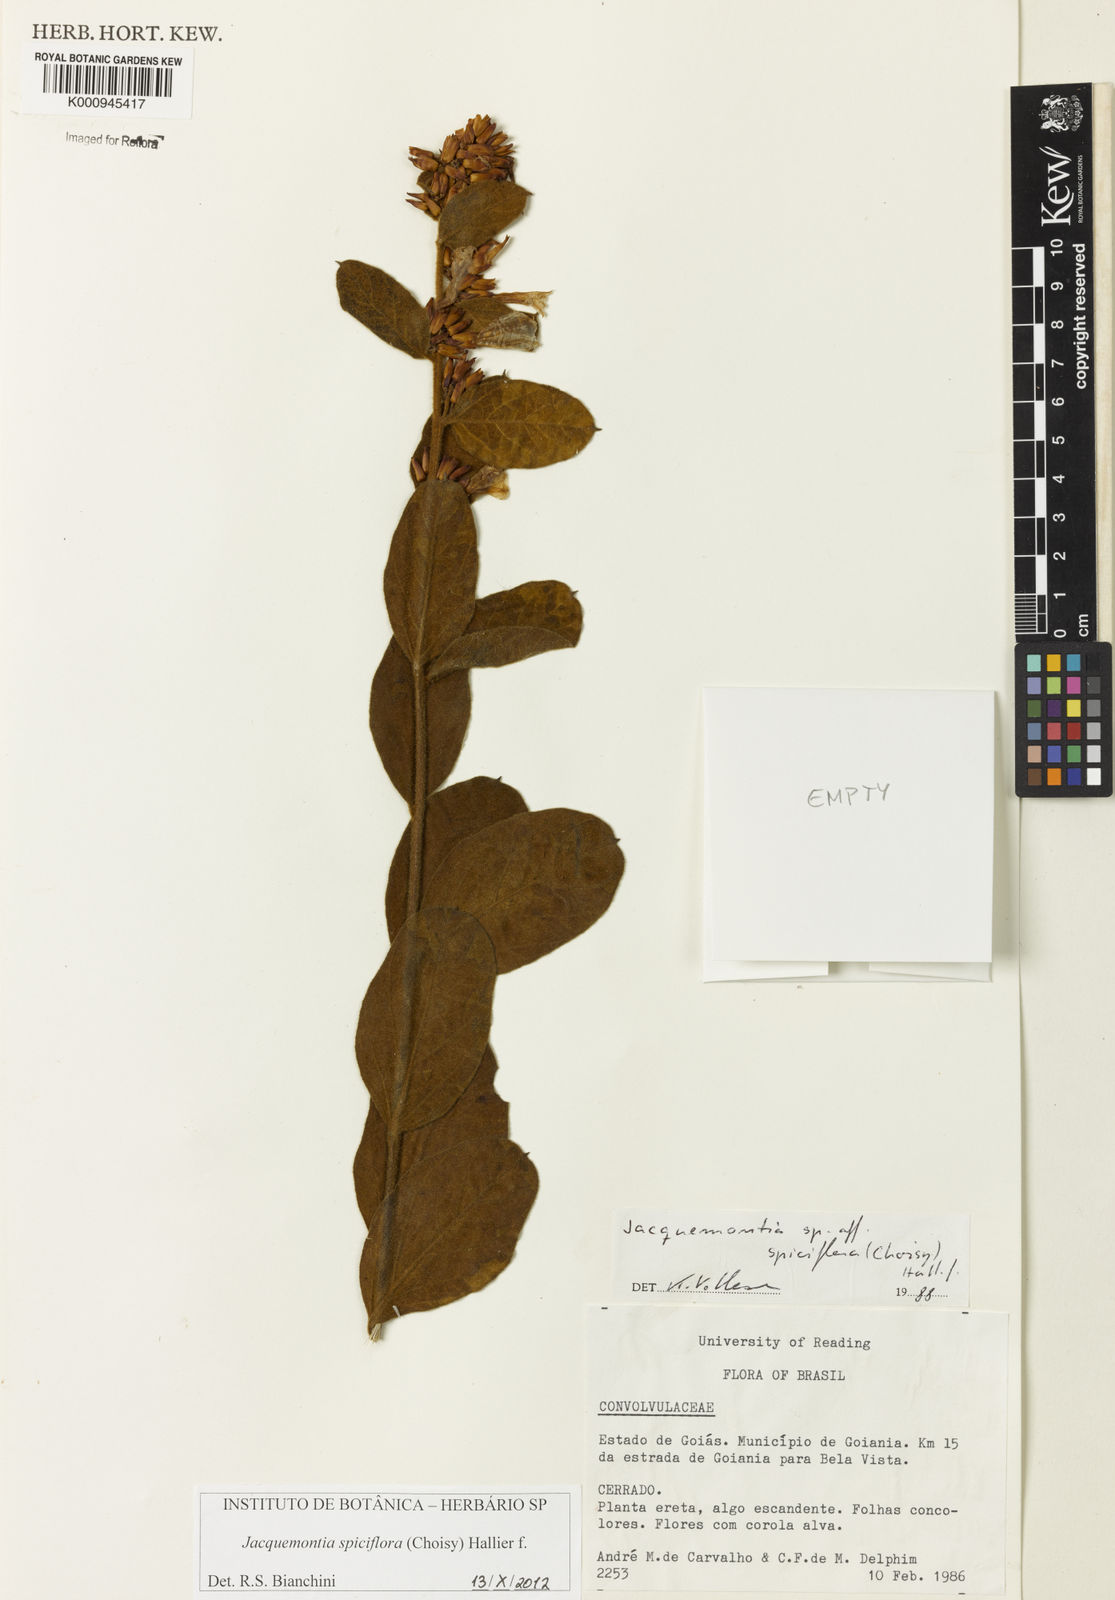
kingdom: Plantae
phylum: Tracheophyta
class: Magnoliopsida
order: Solanales
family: Convolvulaceae
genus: Jacquemontia
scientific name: Jacquemontia spiciflora
